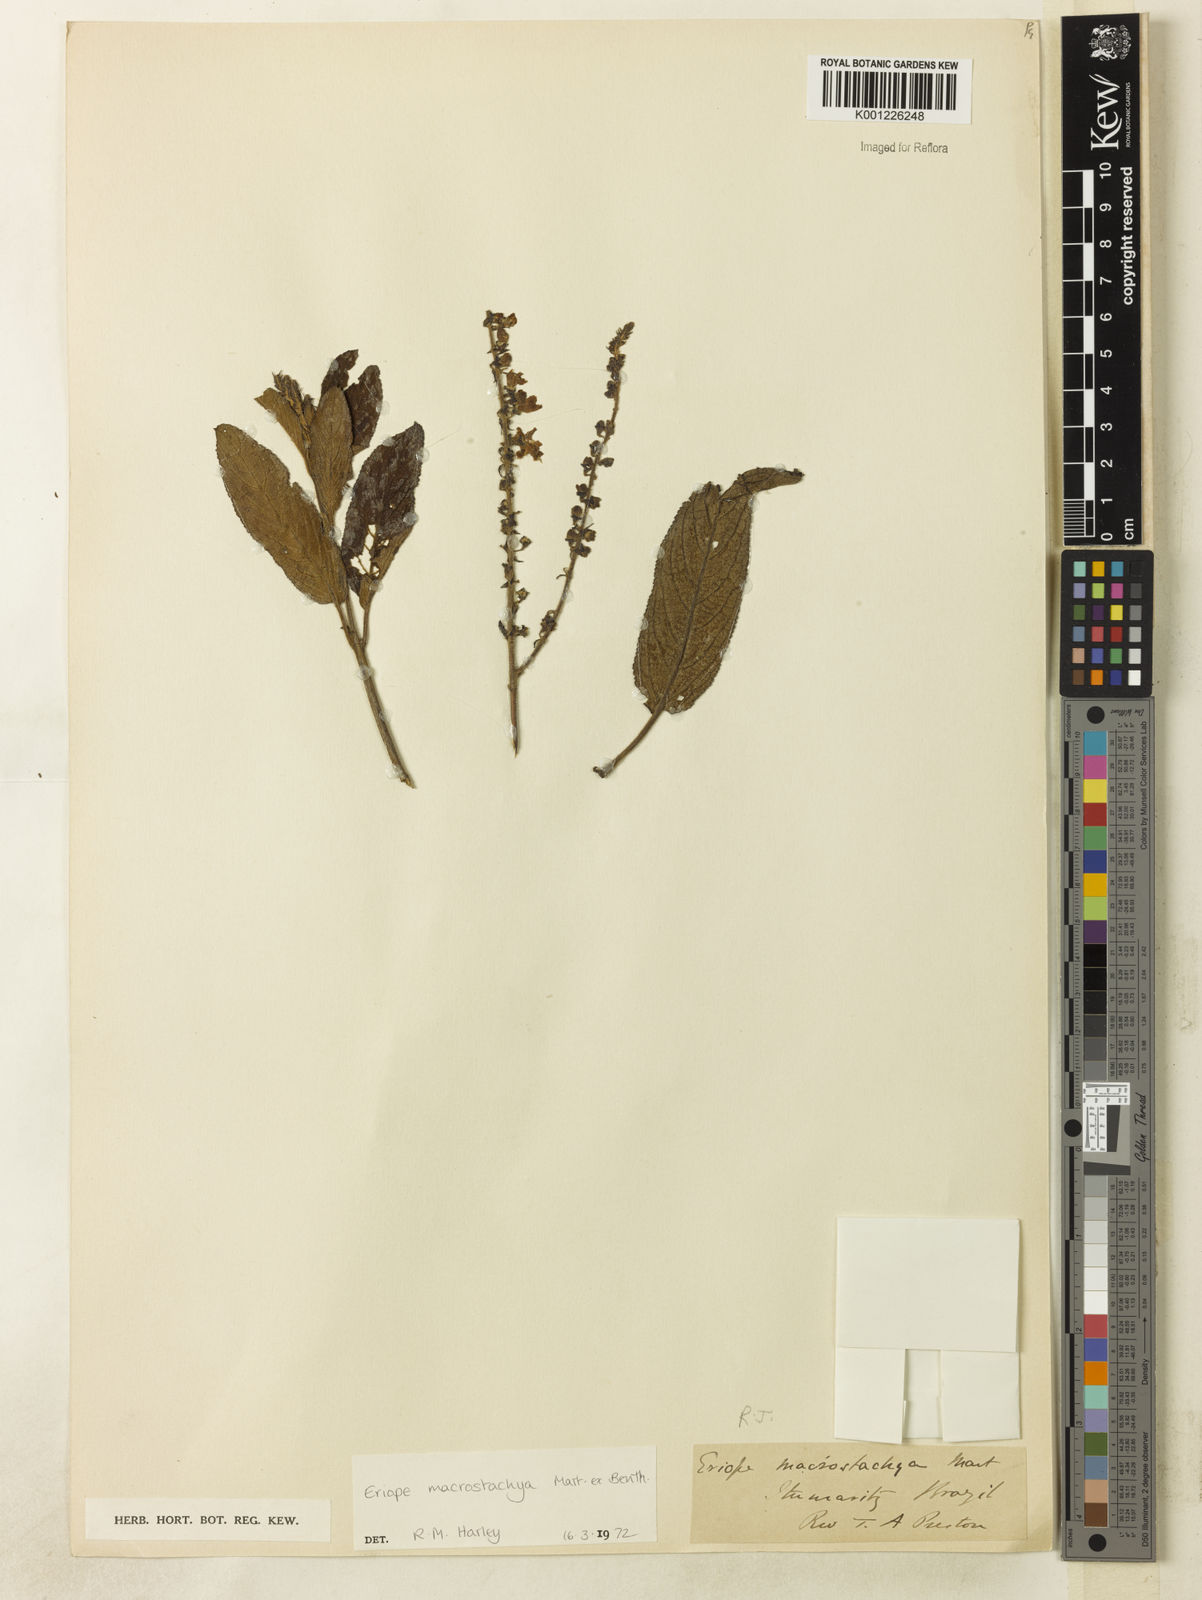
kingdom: Plantae
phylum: Tracheophyta
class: Magnoliopsida
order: Lamiales
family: Lamiaceae
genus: Eriope
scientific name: Eriope macrostachya
